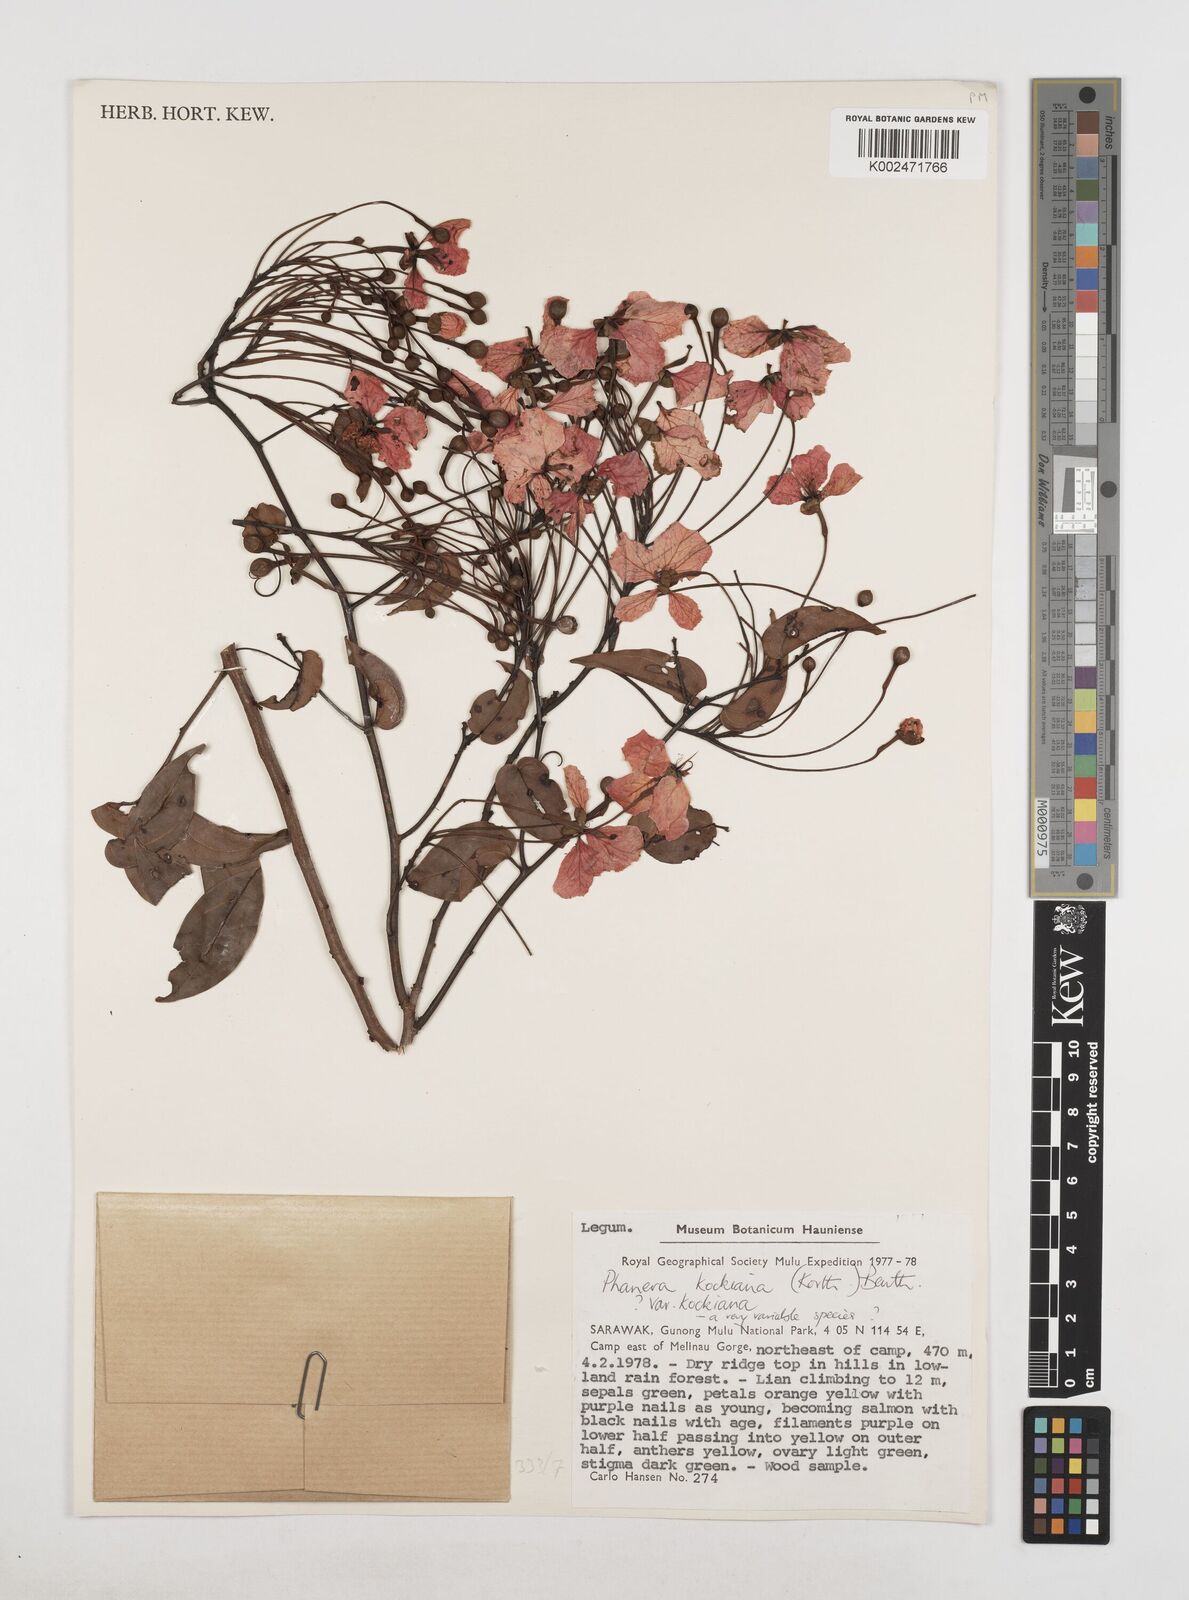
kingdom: Plantae
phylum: Tracheophyta
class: Magnoliopsida
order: Fabales
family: Fabaceae
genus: Phanera
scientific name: Phanera kockiana
